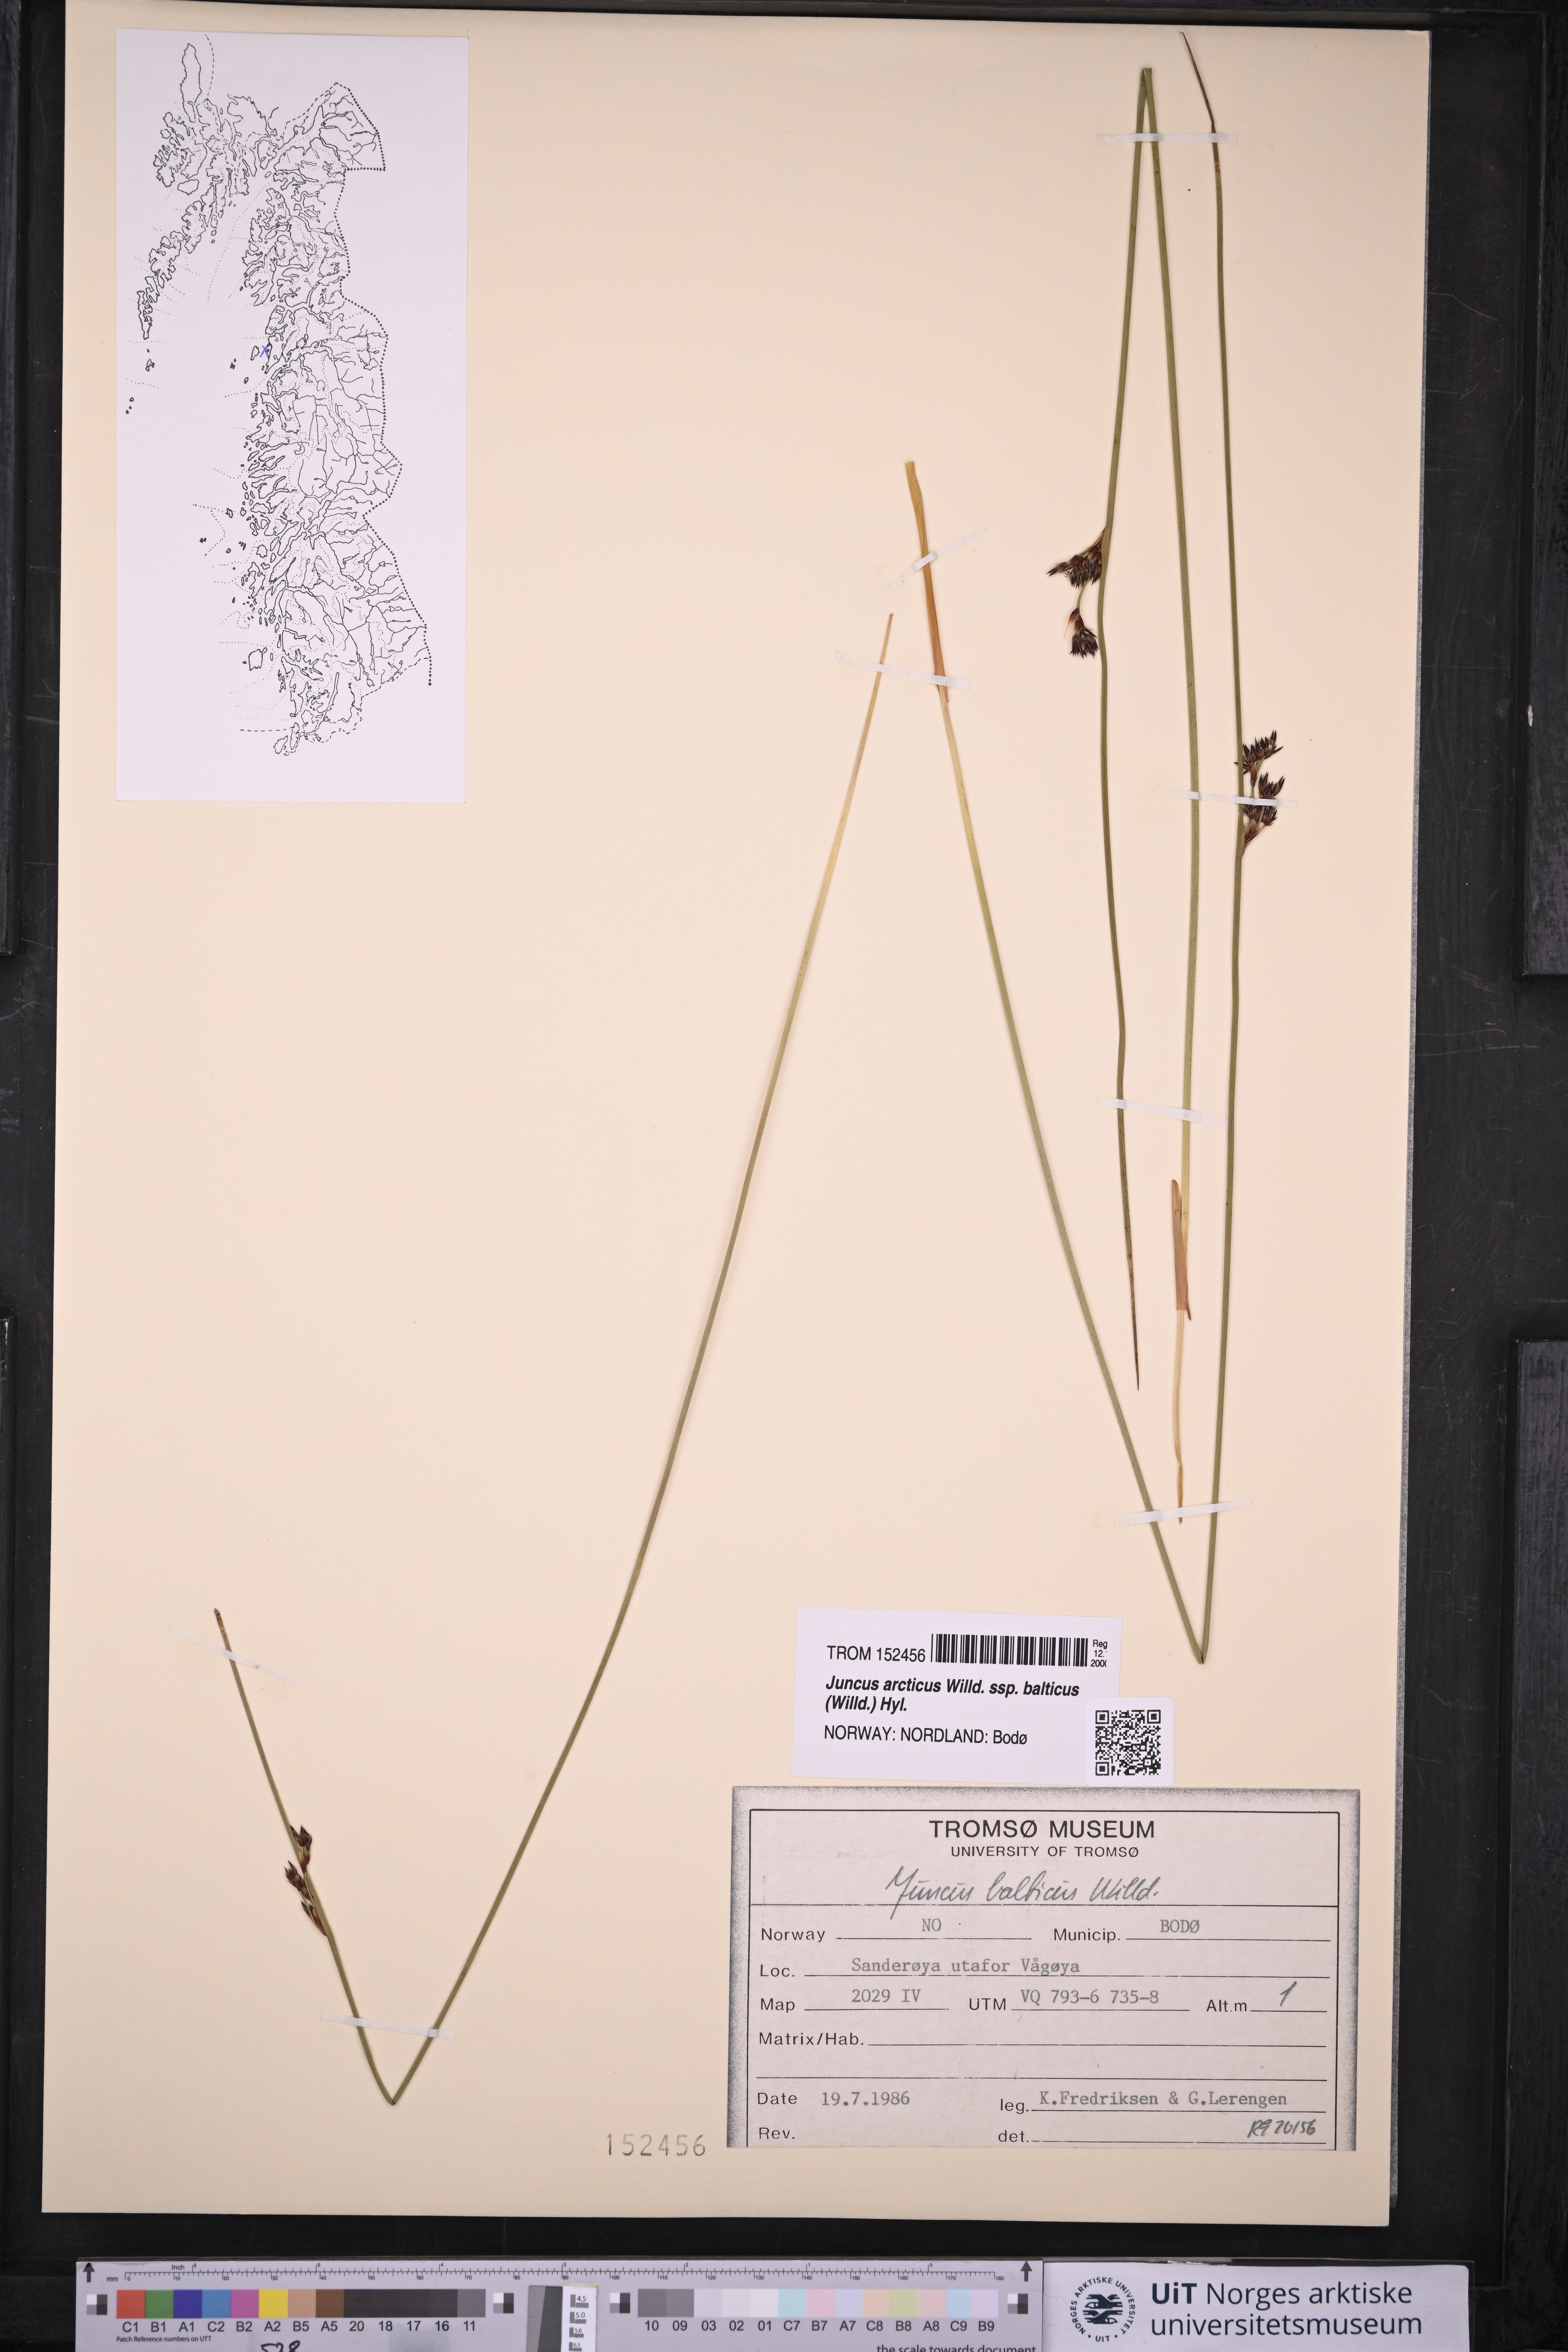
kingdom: Plantae
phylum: Tracheophyta
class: Liliopsida
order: Poales
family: Juncaceae
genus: Juncus
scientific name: Juncus balticus
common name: Baltic rush
